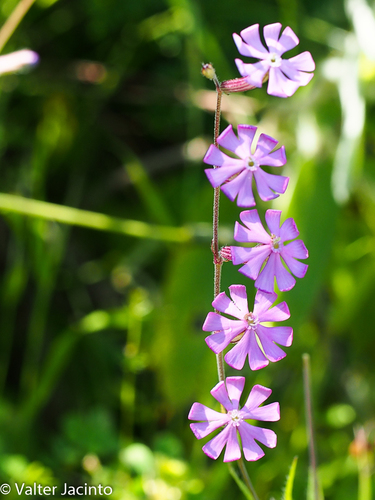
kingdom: Plantae
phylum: Tracheophyta
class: Magnoliopsida
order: Caryophyllales
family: Caryophyllaceae
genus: Silene
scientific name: Silene scabriflora
